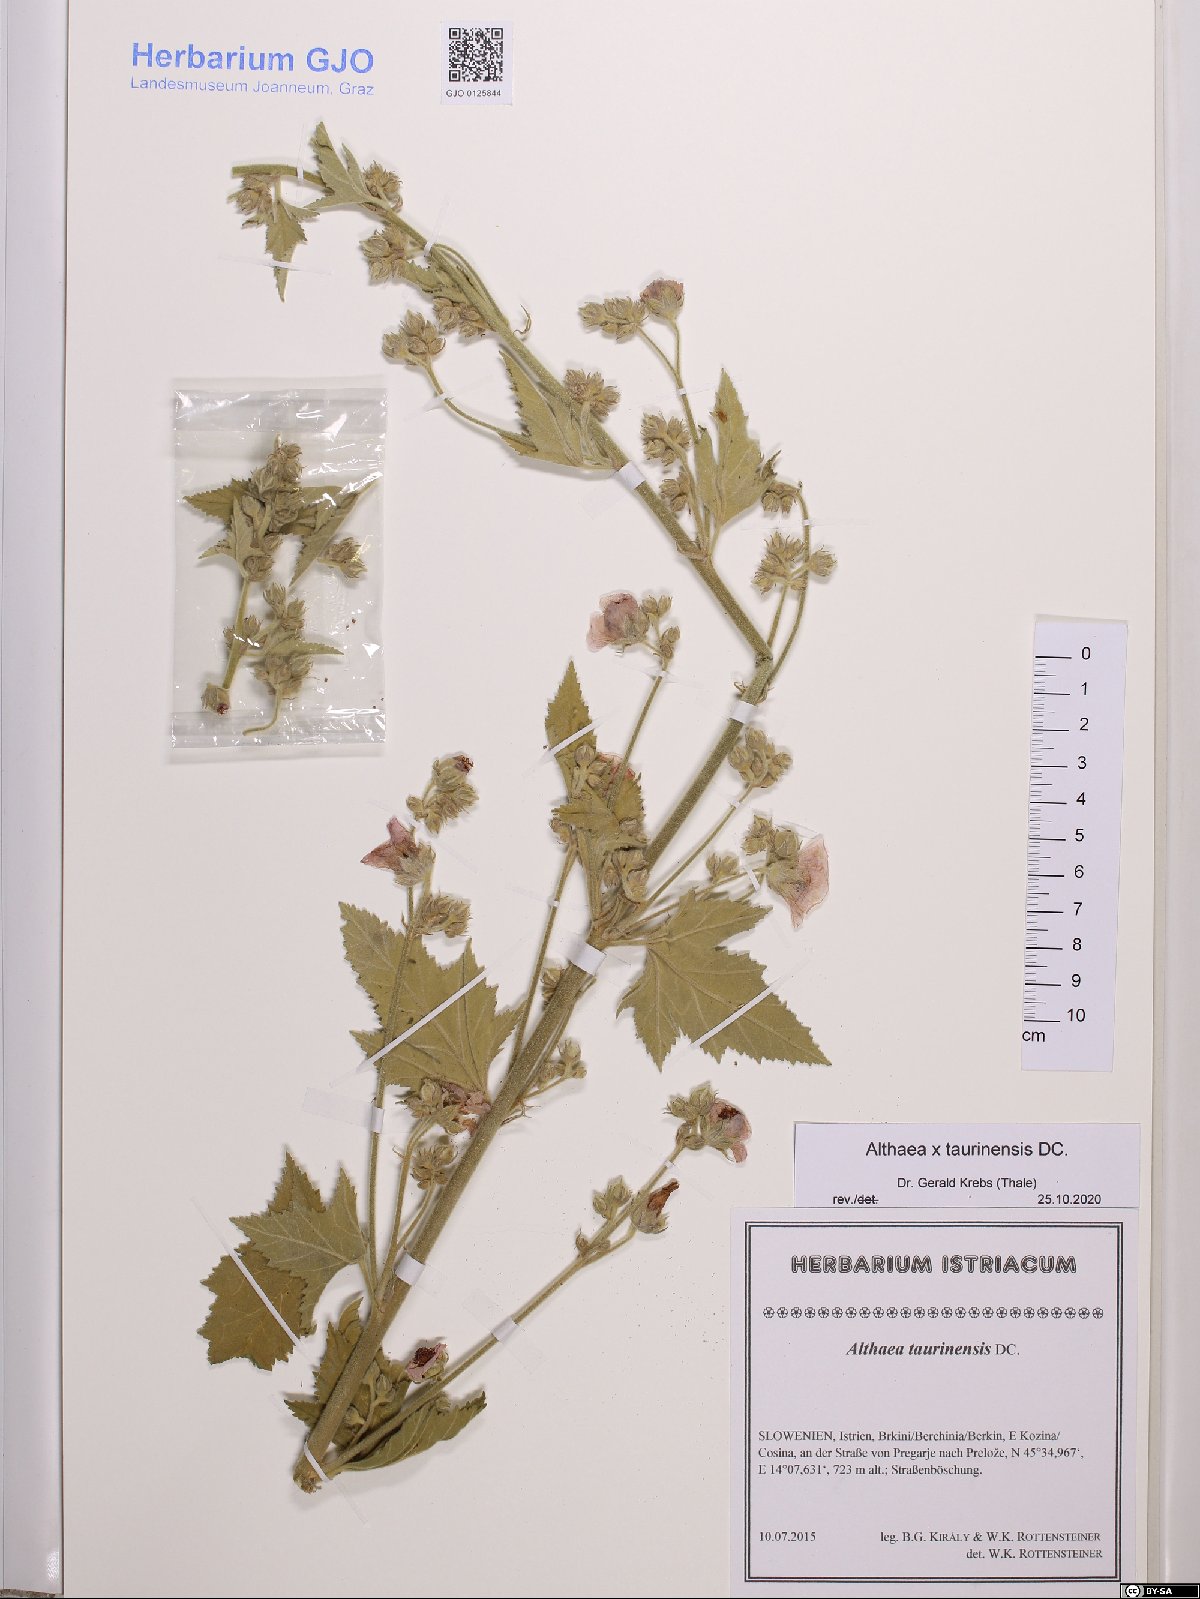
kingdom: Plantae
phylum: Tracheophyta
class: Magnoliopsida
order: Malvales
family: Malvaceae
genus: Althaea
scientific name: Althaea taurinensis
